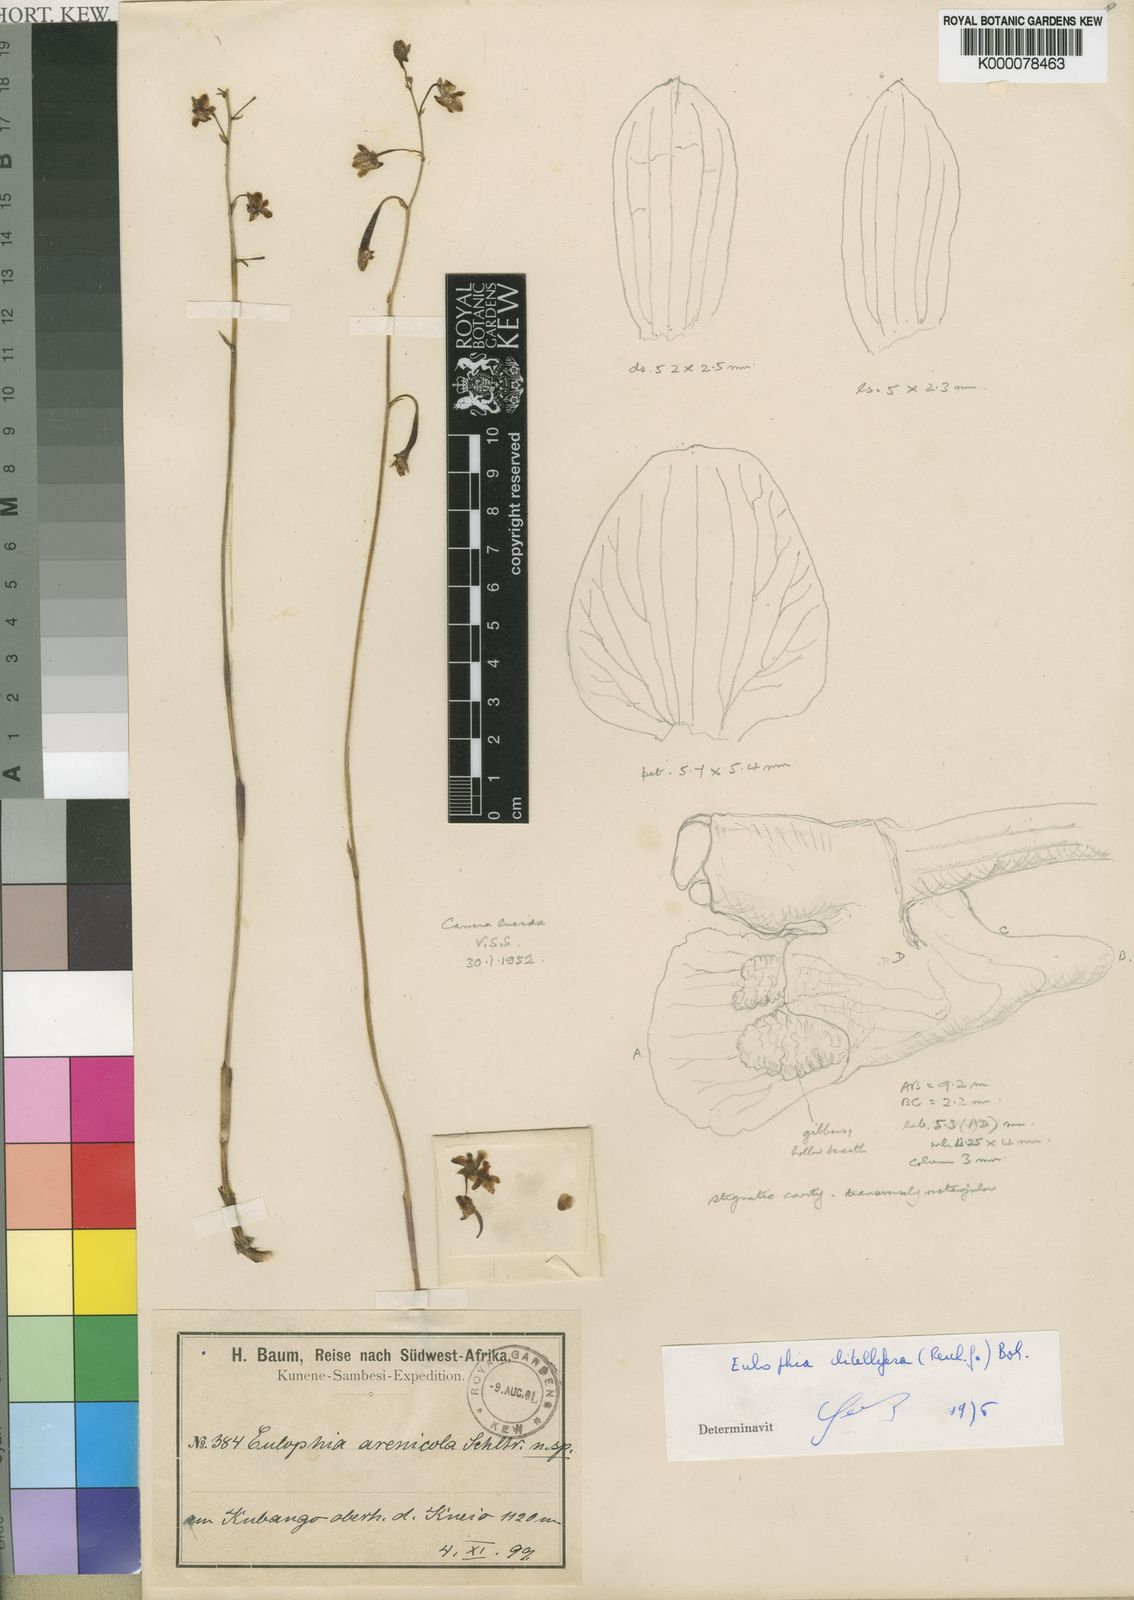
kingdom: Plantae
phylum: Tracheophyta
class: Liliopsida
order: Asparagales
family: Orchidaceae
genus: Eulophia
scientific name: Eulophia arenicola
